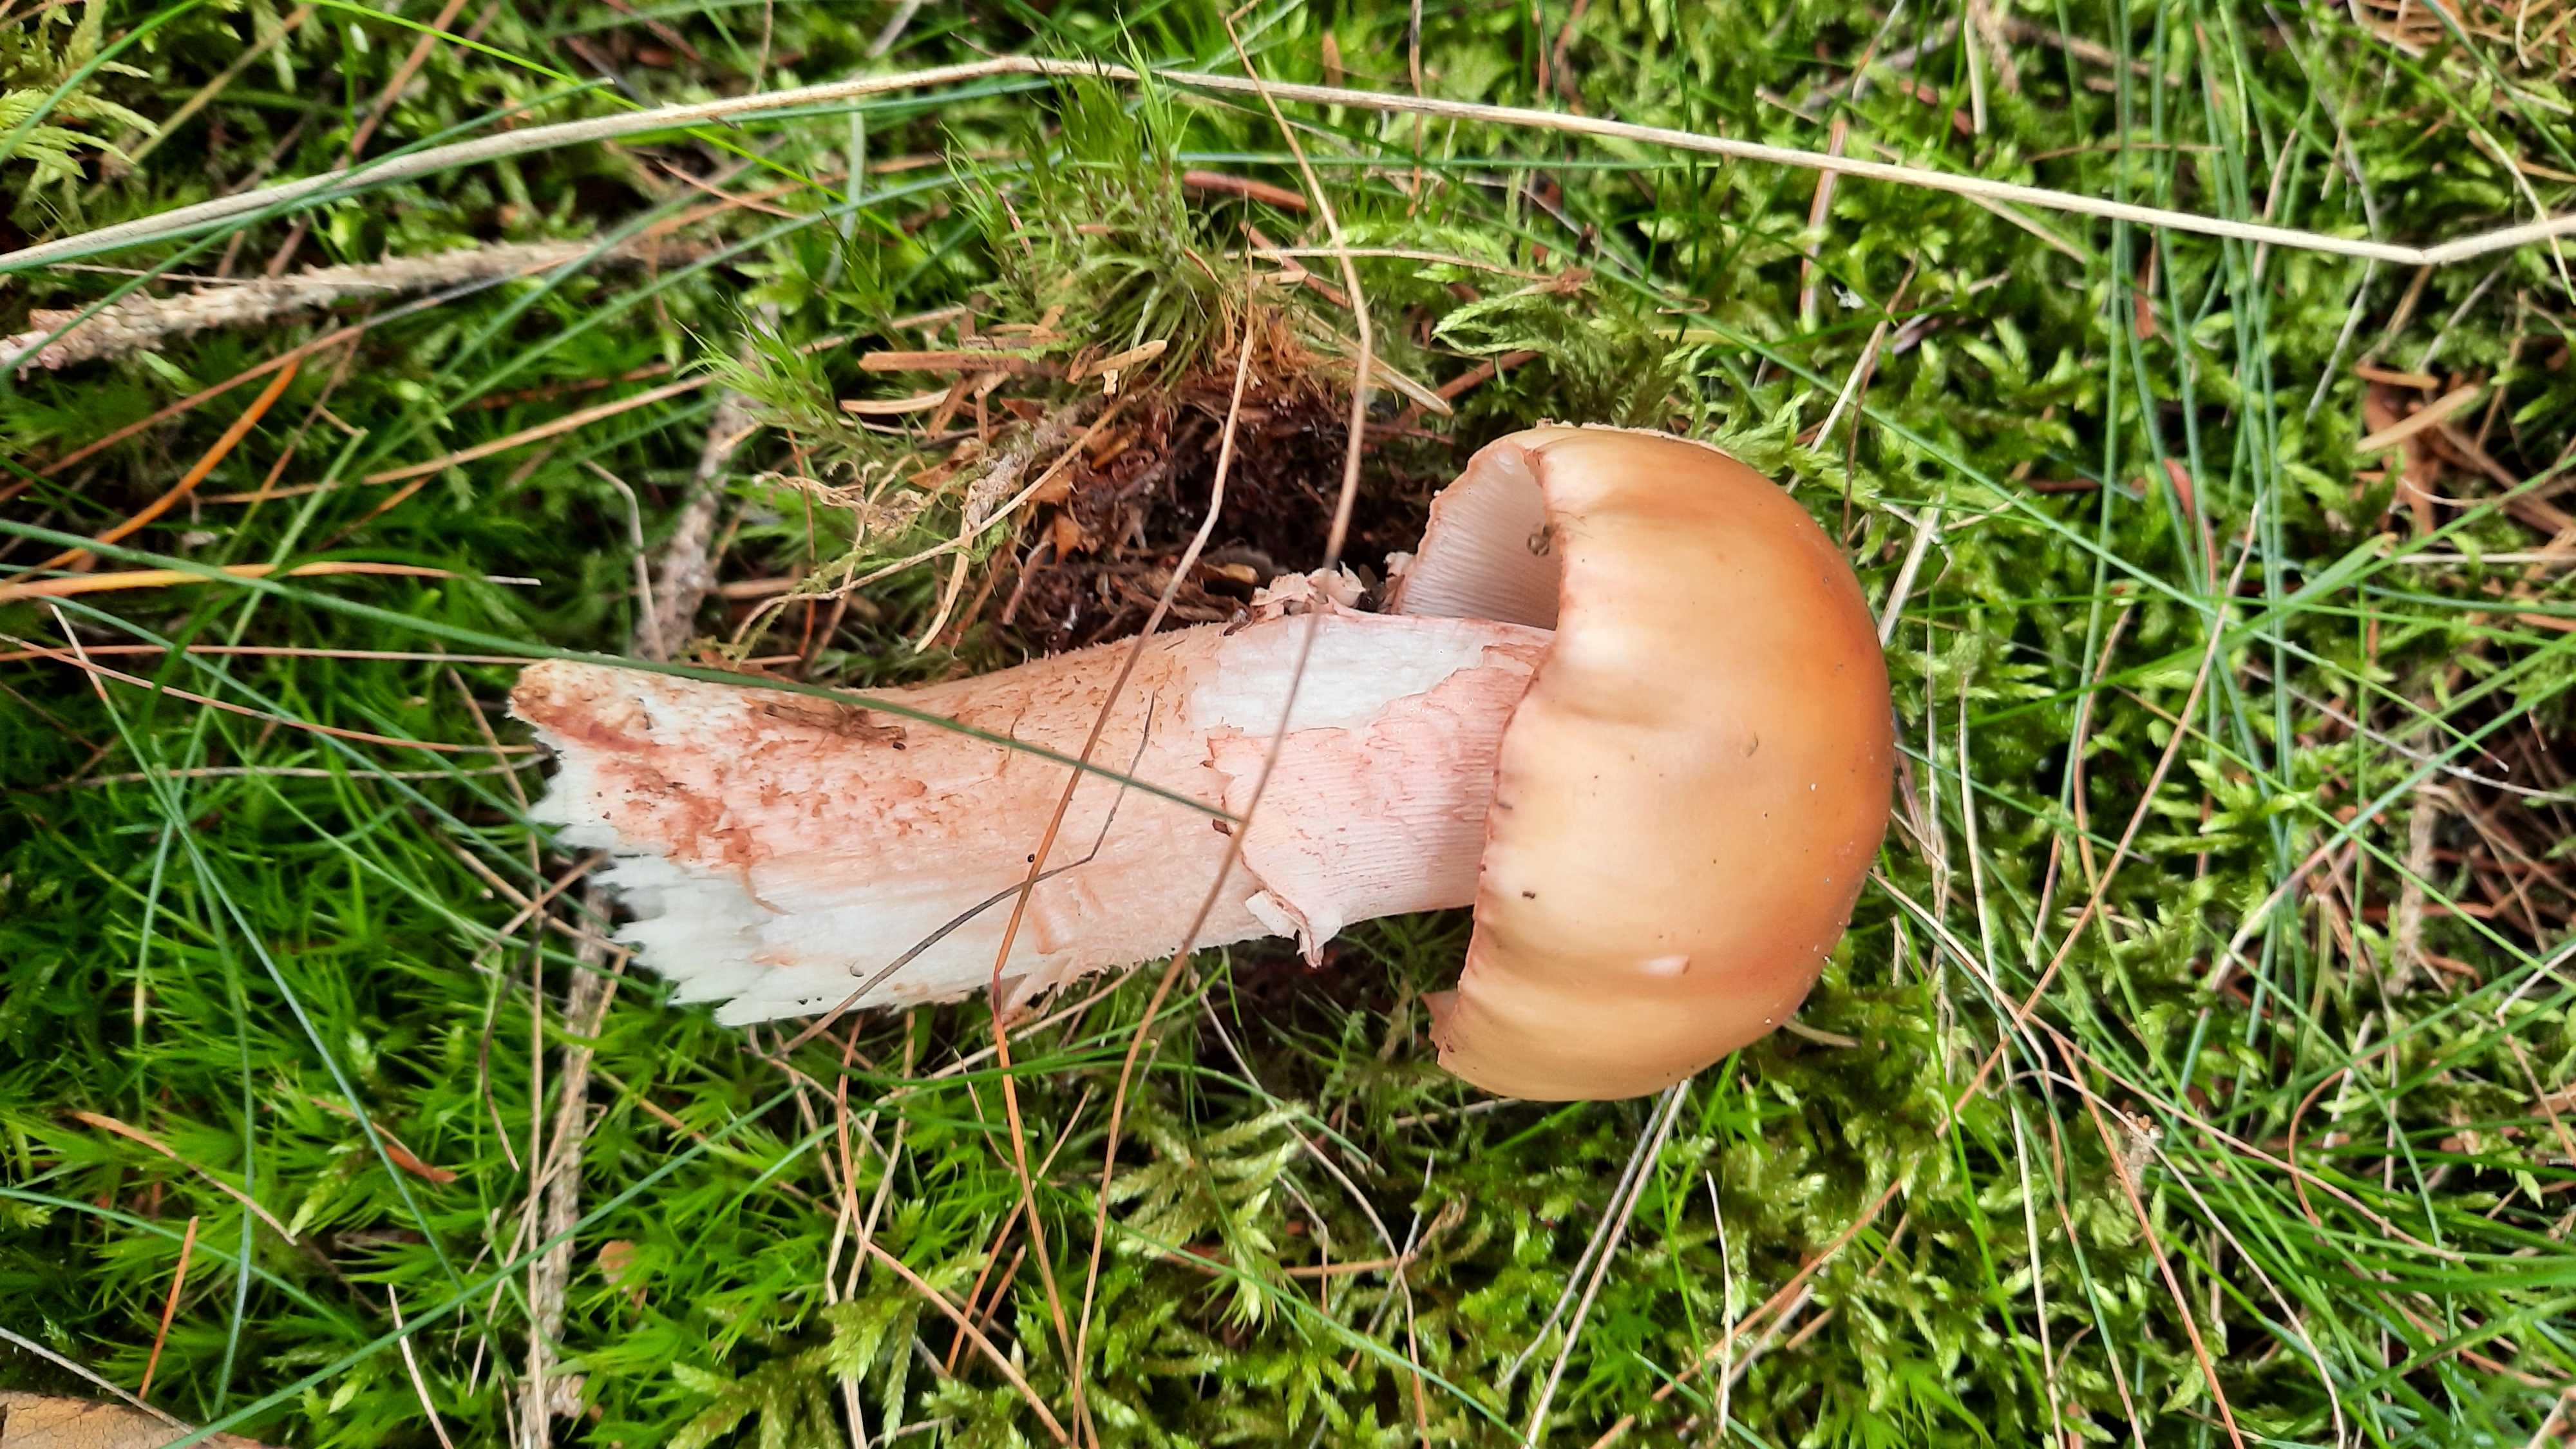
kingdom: Fungi
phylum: Basidiomycota
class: Agaricomycetes
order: Agaricales
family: Amanitaceae
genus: Amanita
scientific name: Amanita rubescens
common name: rødmende fluesvamp
